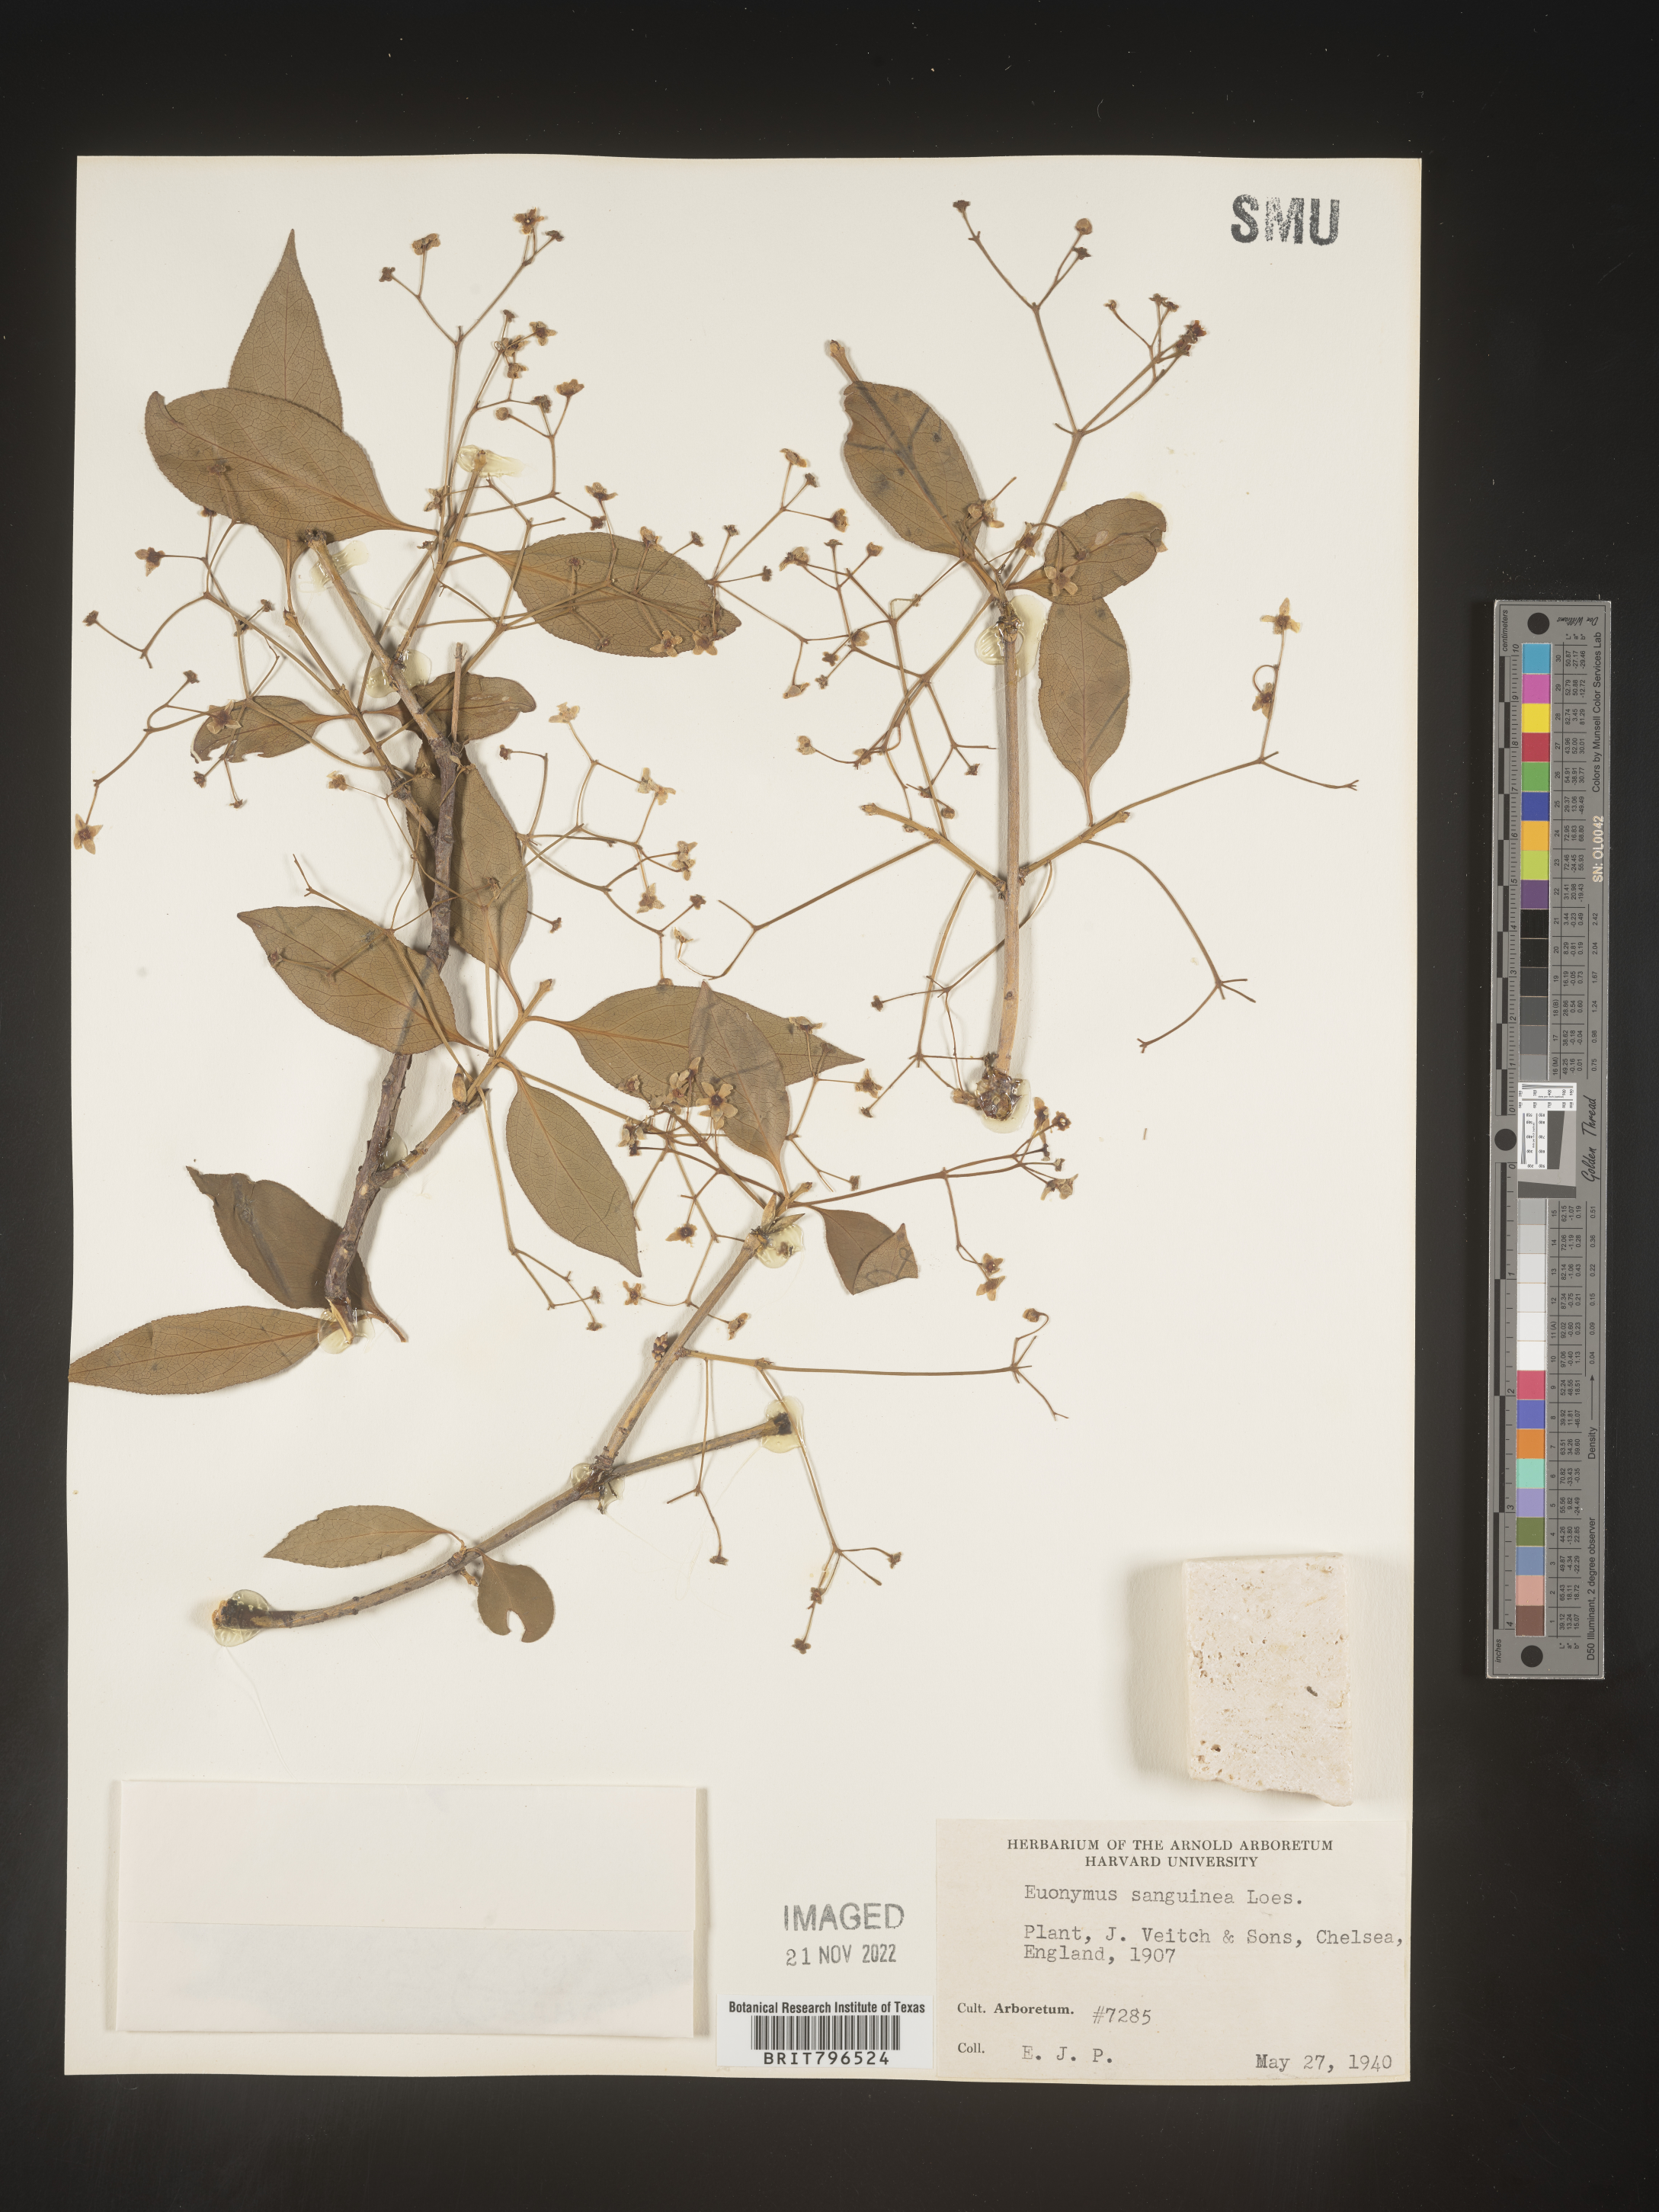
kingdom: Plantae
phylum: Tracheophyta
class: Magnoliopsida
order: Celastrales
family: Celastraceae
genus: Euonymus
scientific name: Euonymus
